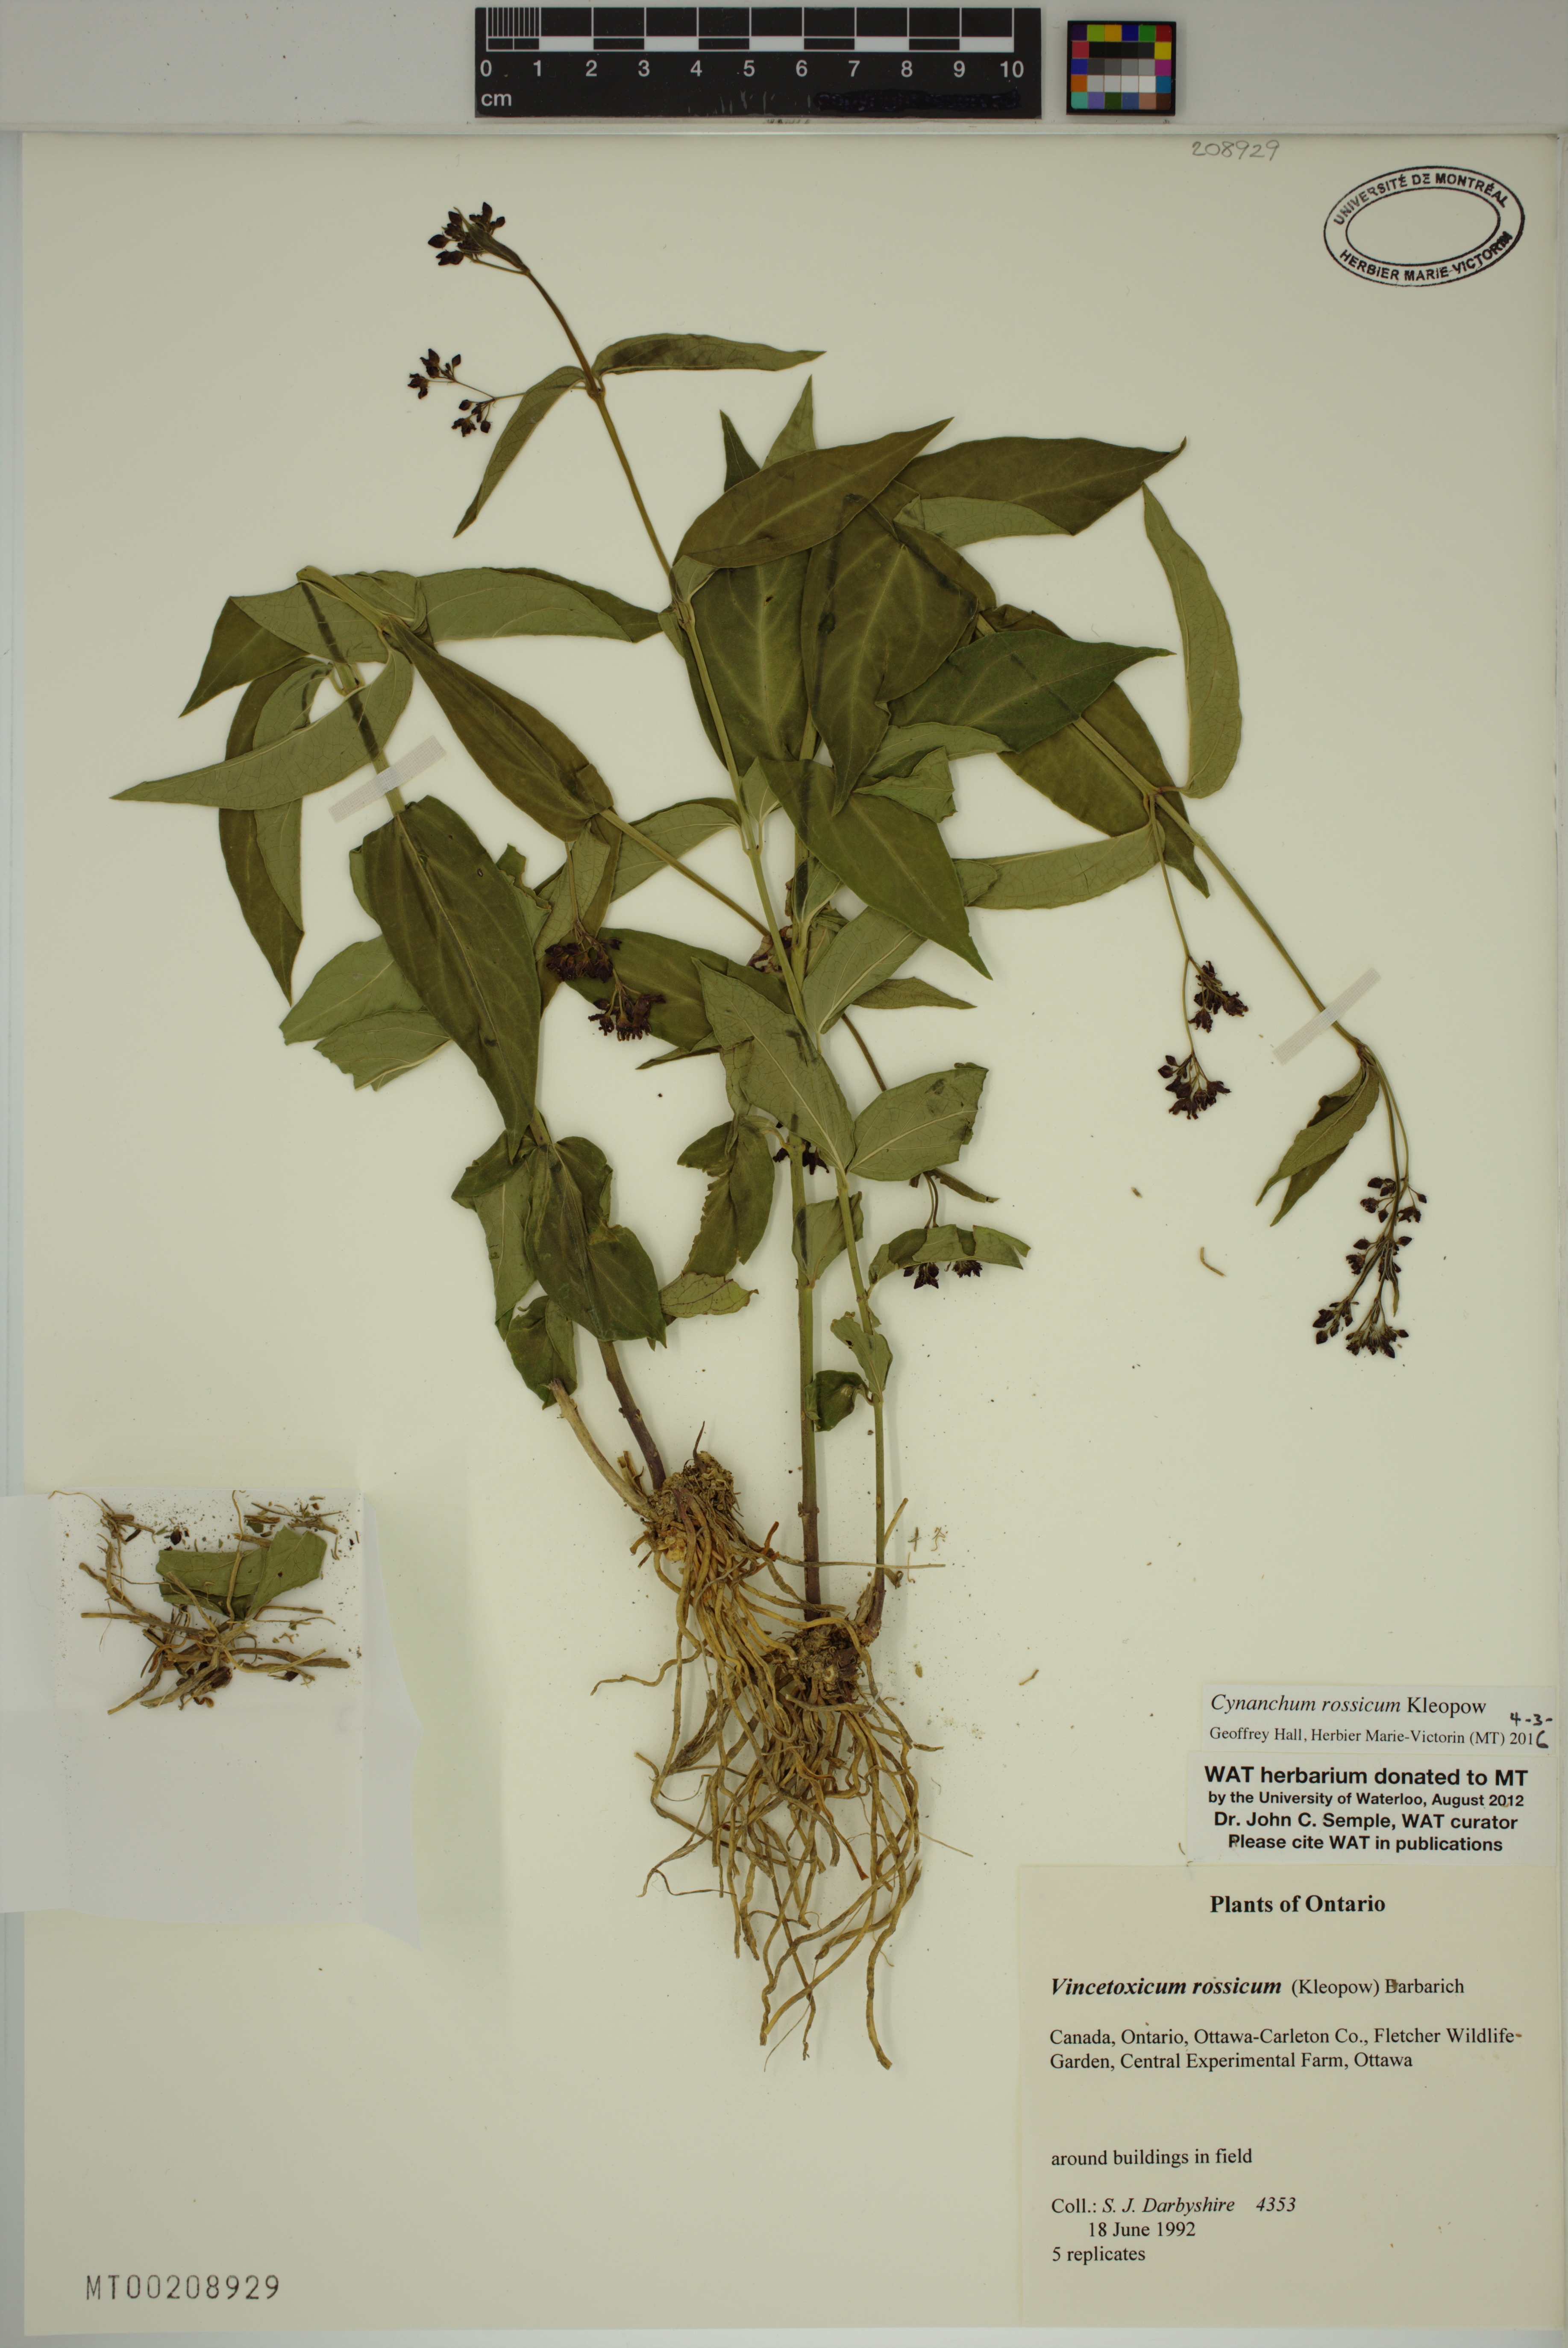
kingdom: Plantae
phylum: Tracheophyta
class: Magnoliopsida
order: Gentianales
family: Apocynaceae
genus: Vincetoxicum
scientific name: Vincetoxicum rossicum
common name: Dog-strangling vine
